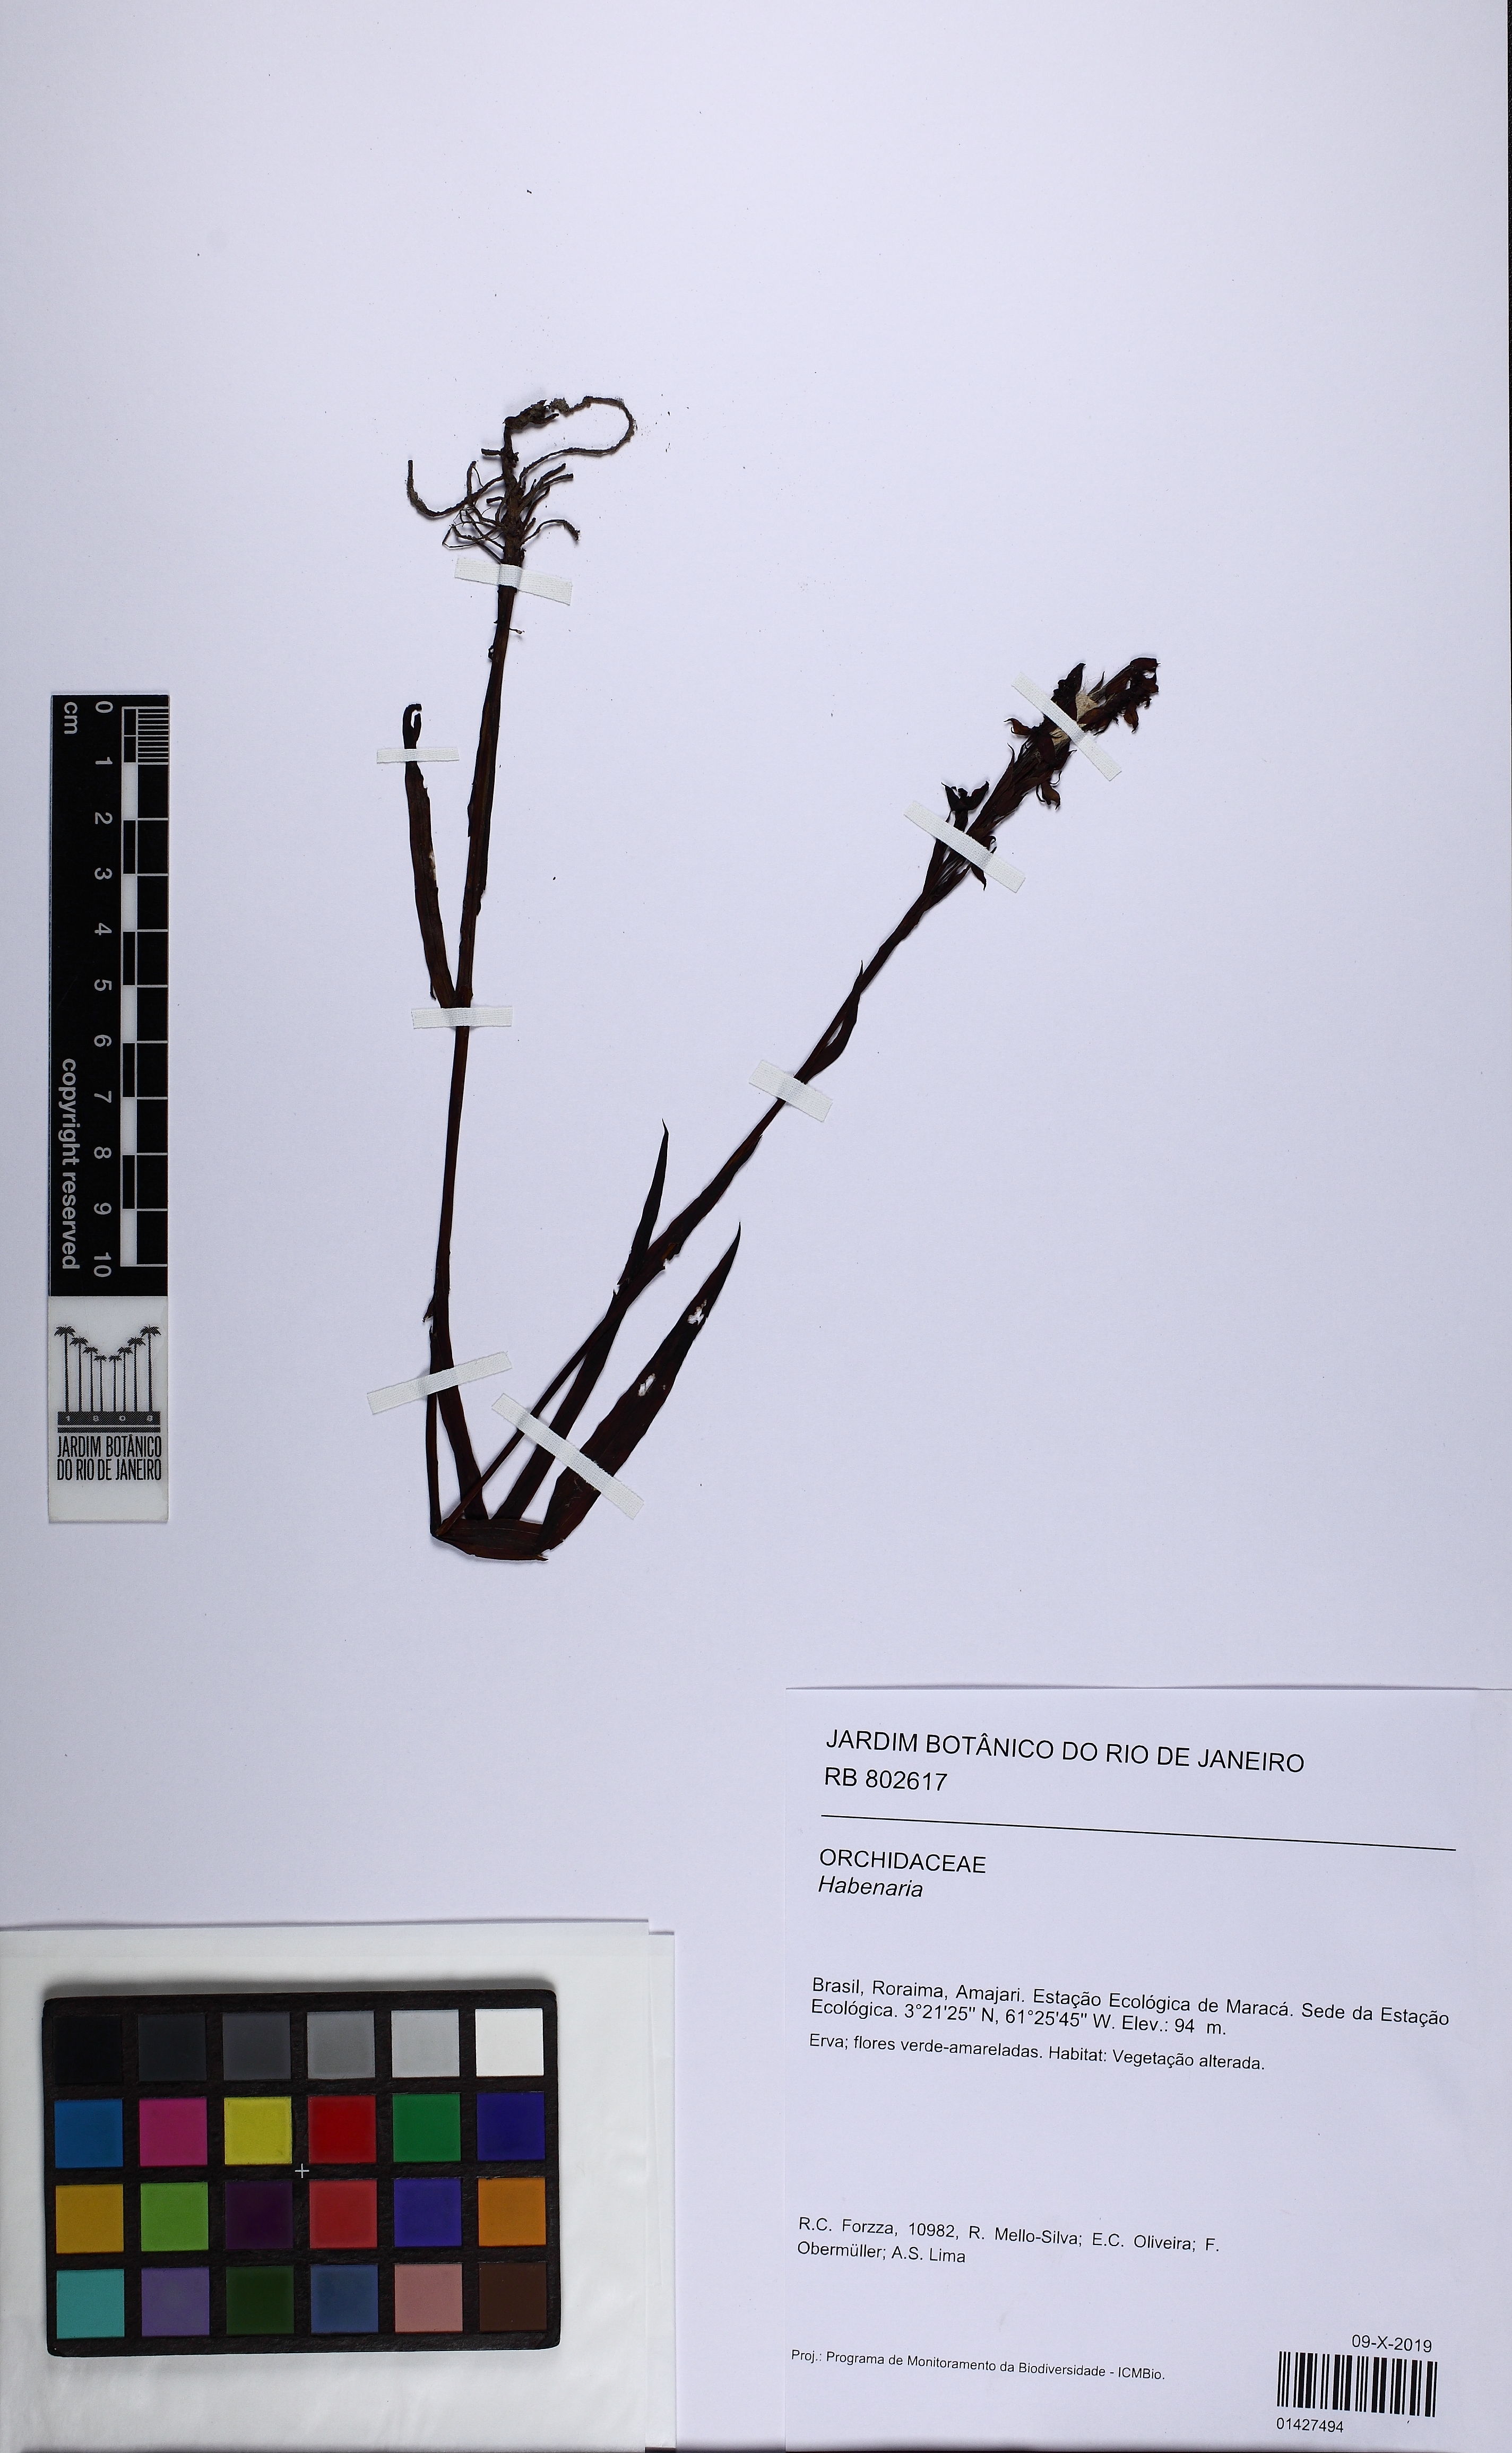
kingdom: Plantae
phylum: Tracheophyta
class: Liliopsida
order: Asparagales
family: Orchidaceae
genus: Habenaria
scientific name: Habenaria
